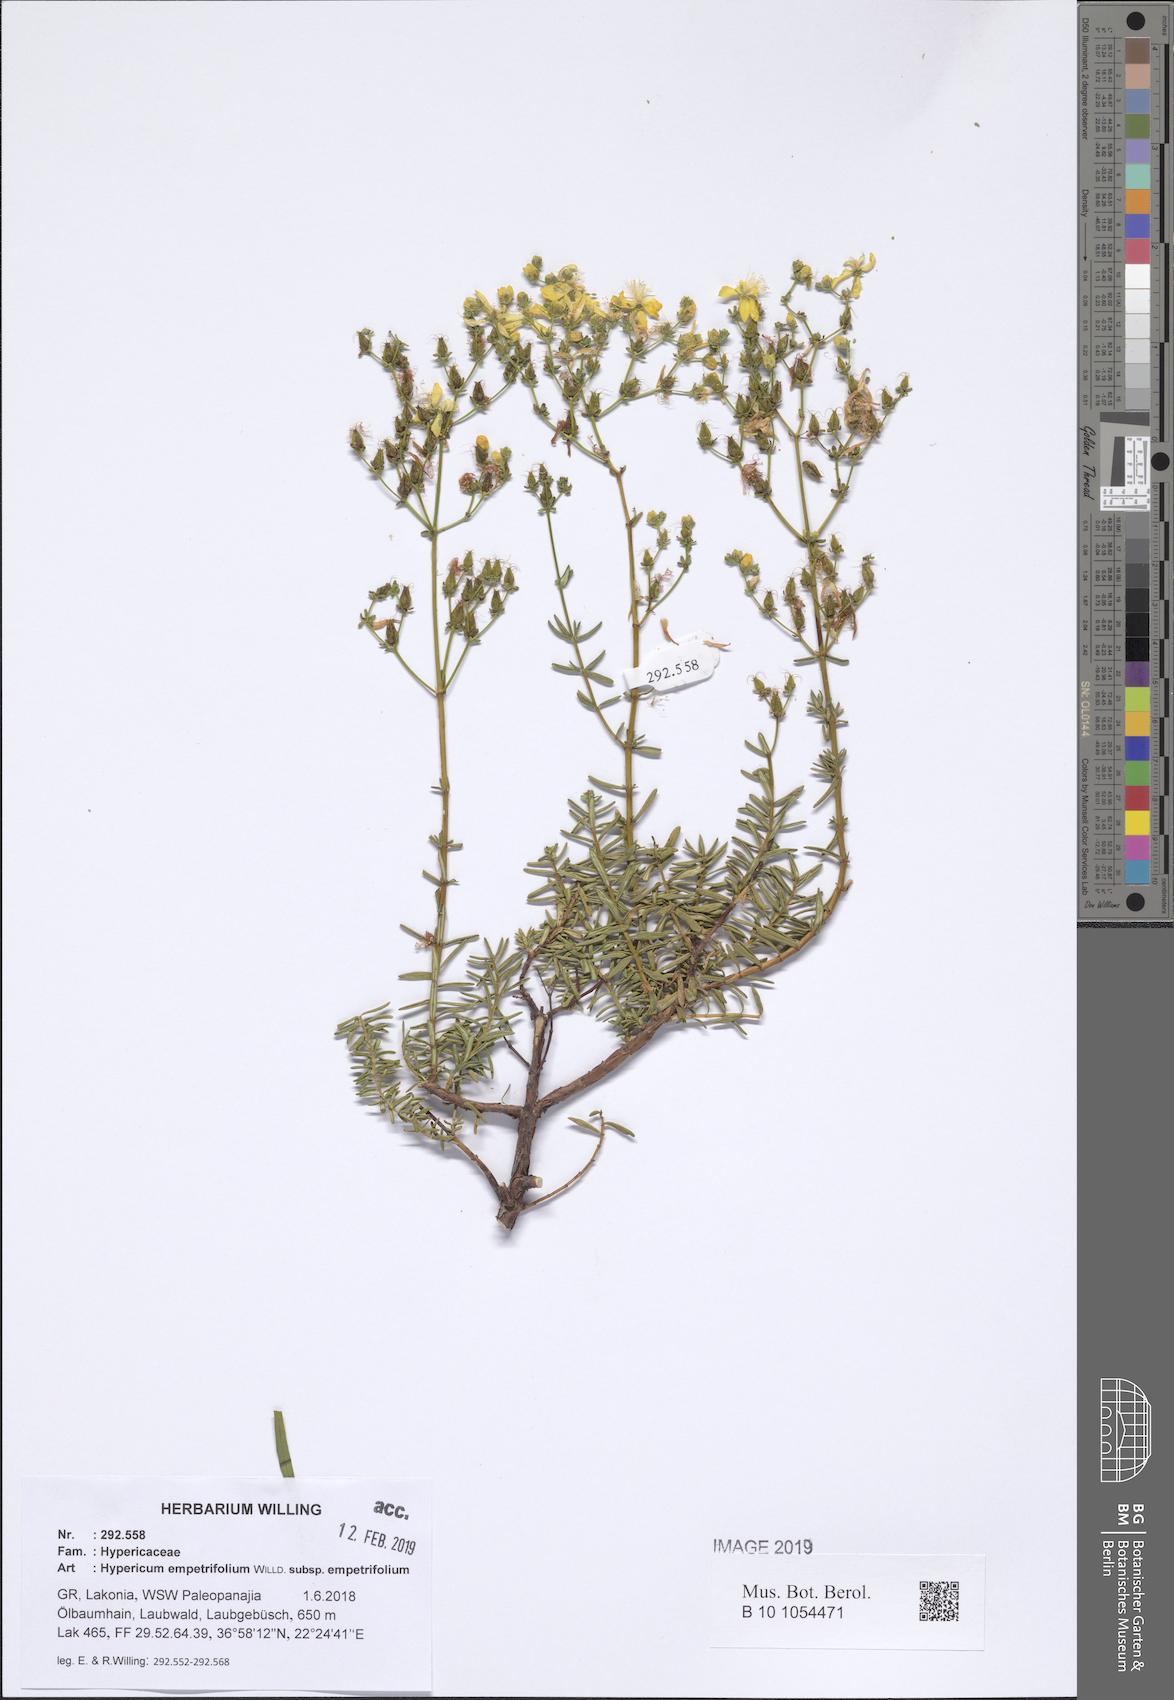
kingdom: Plantae
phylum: Tracheophyta
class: Magnoliopsida
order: Malpighiales
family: Hypericaceae
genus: Hypericum
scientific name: Hypericum empetrifolium
